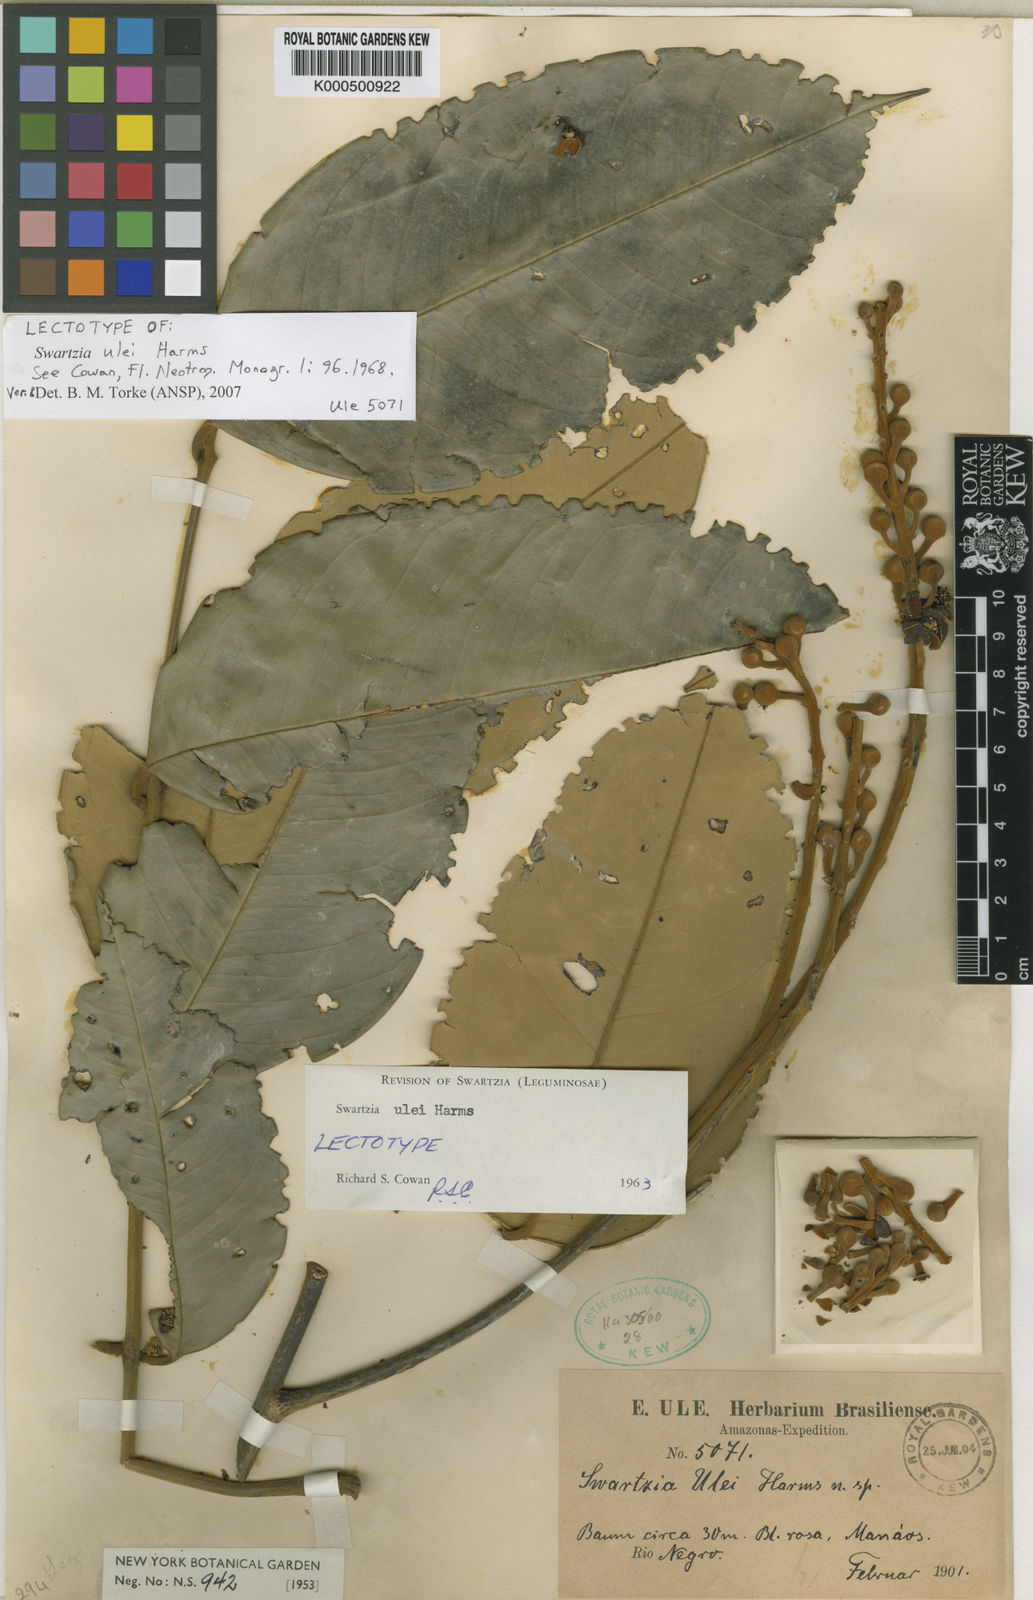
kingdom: Plantae
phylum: Tracheophyta
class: Magnoliopsida
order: Fabales
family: Fabaceae
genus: Swartzia
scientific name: Swartzia ulei
